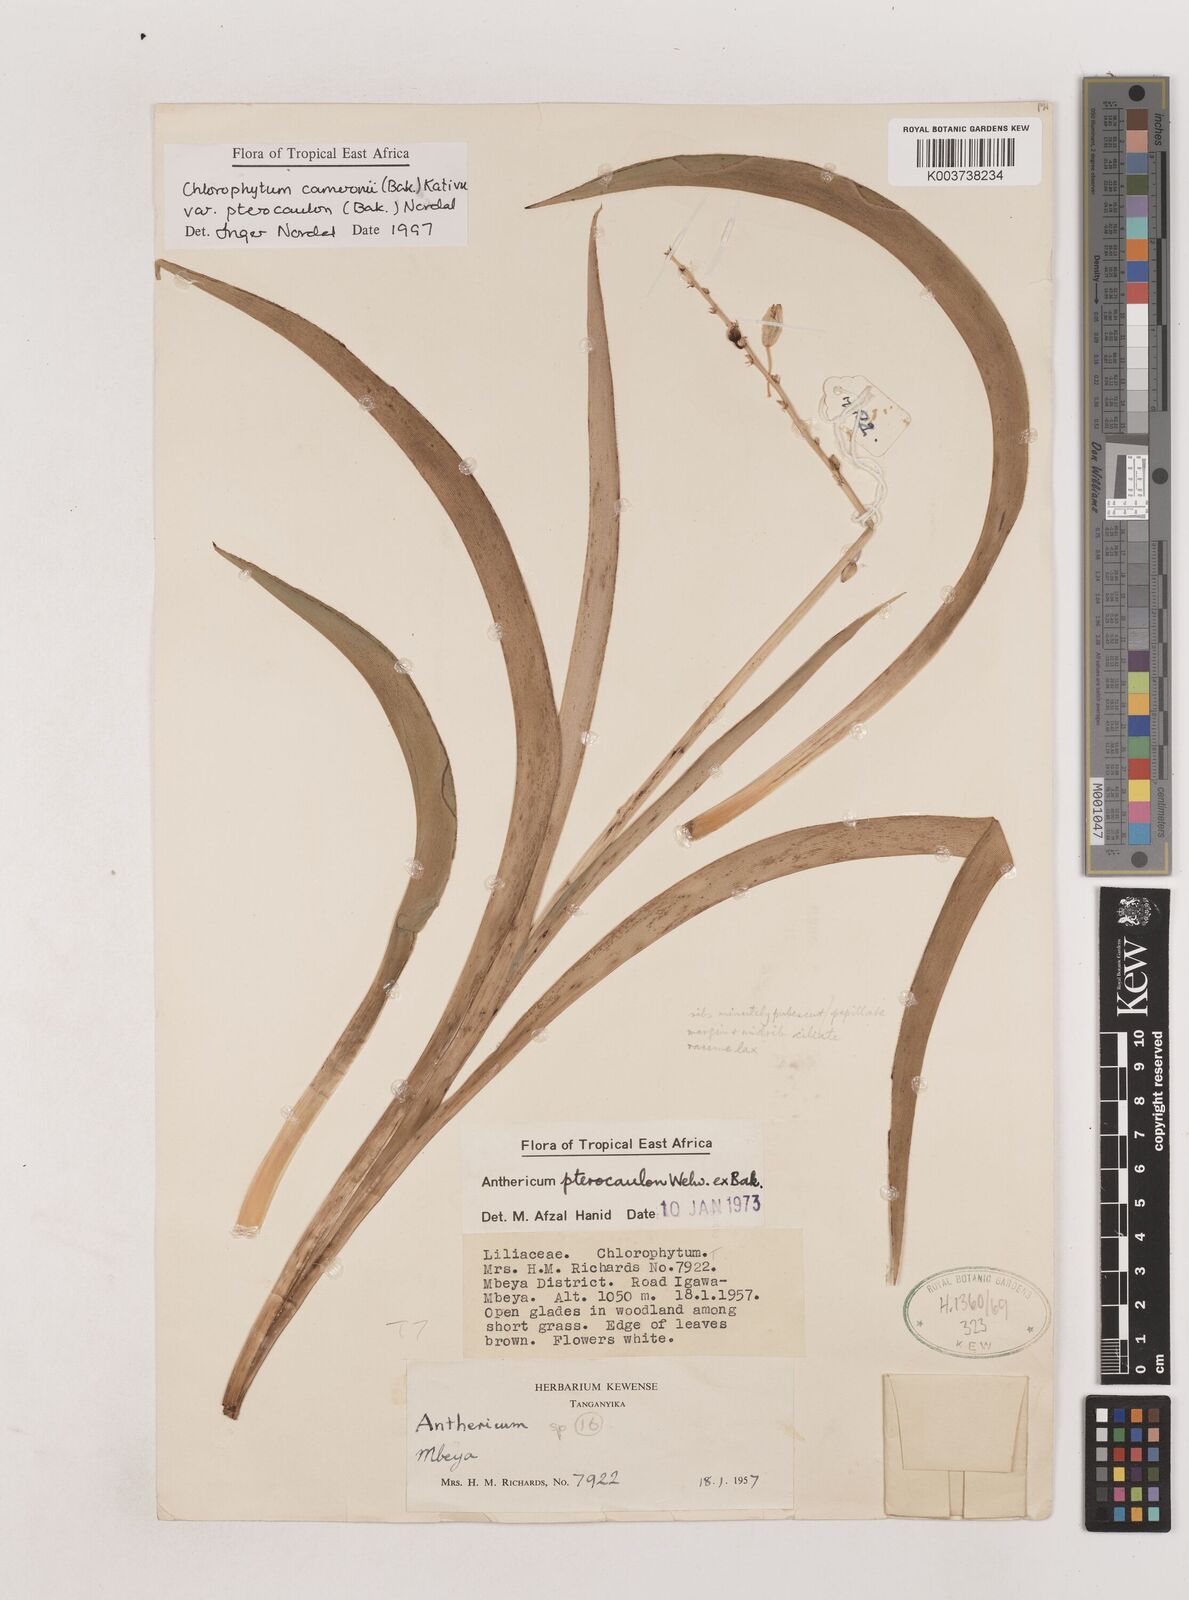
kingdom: Plantae
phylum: Tracheophyta
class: Liliopsida
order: Asparagales
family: Asparagaceae
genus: Chlorophytum
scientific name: Chlorophytum cameronii
